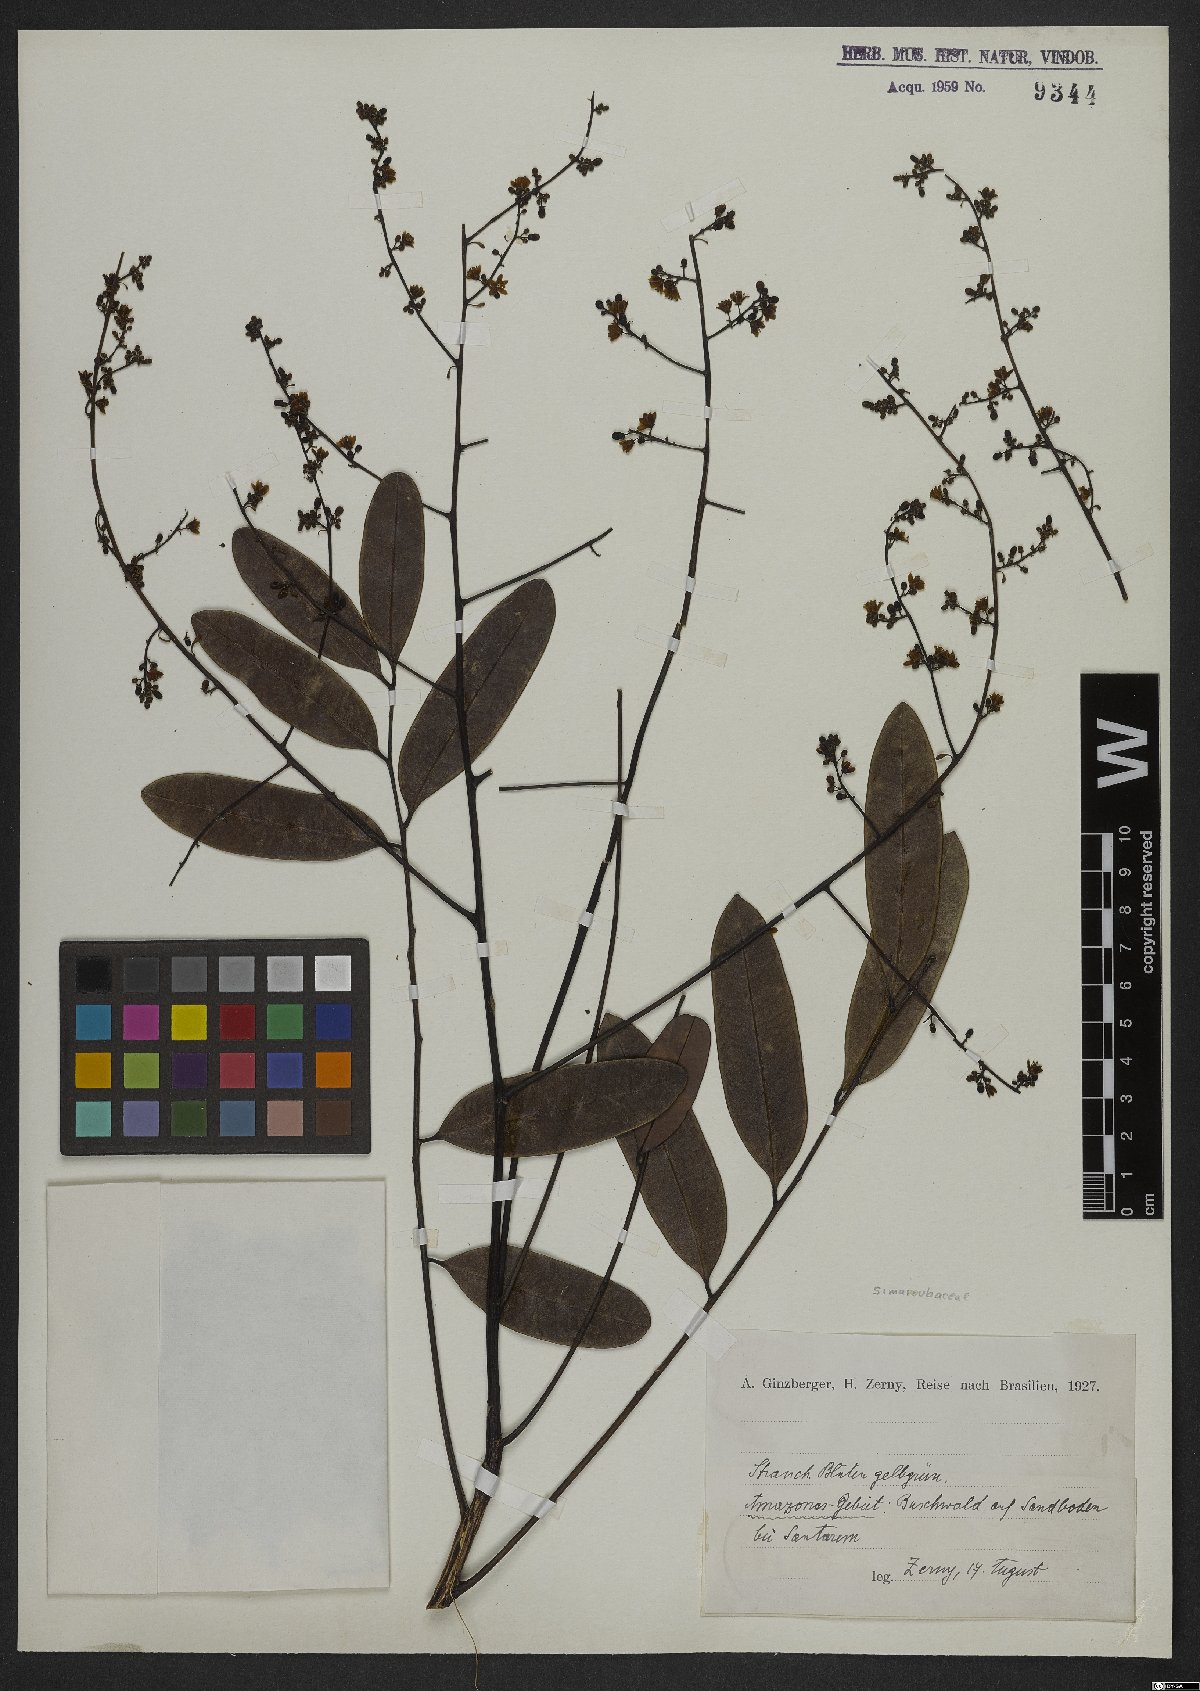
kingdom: Plantae
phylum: Tracheophyta
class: Magnoliopsida
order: Sapindales
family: Simaroubaceae
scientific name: Simaroubaceae
